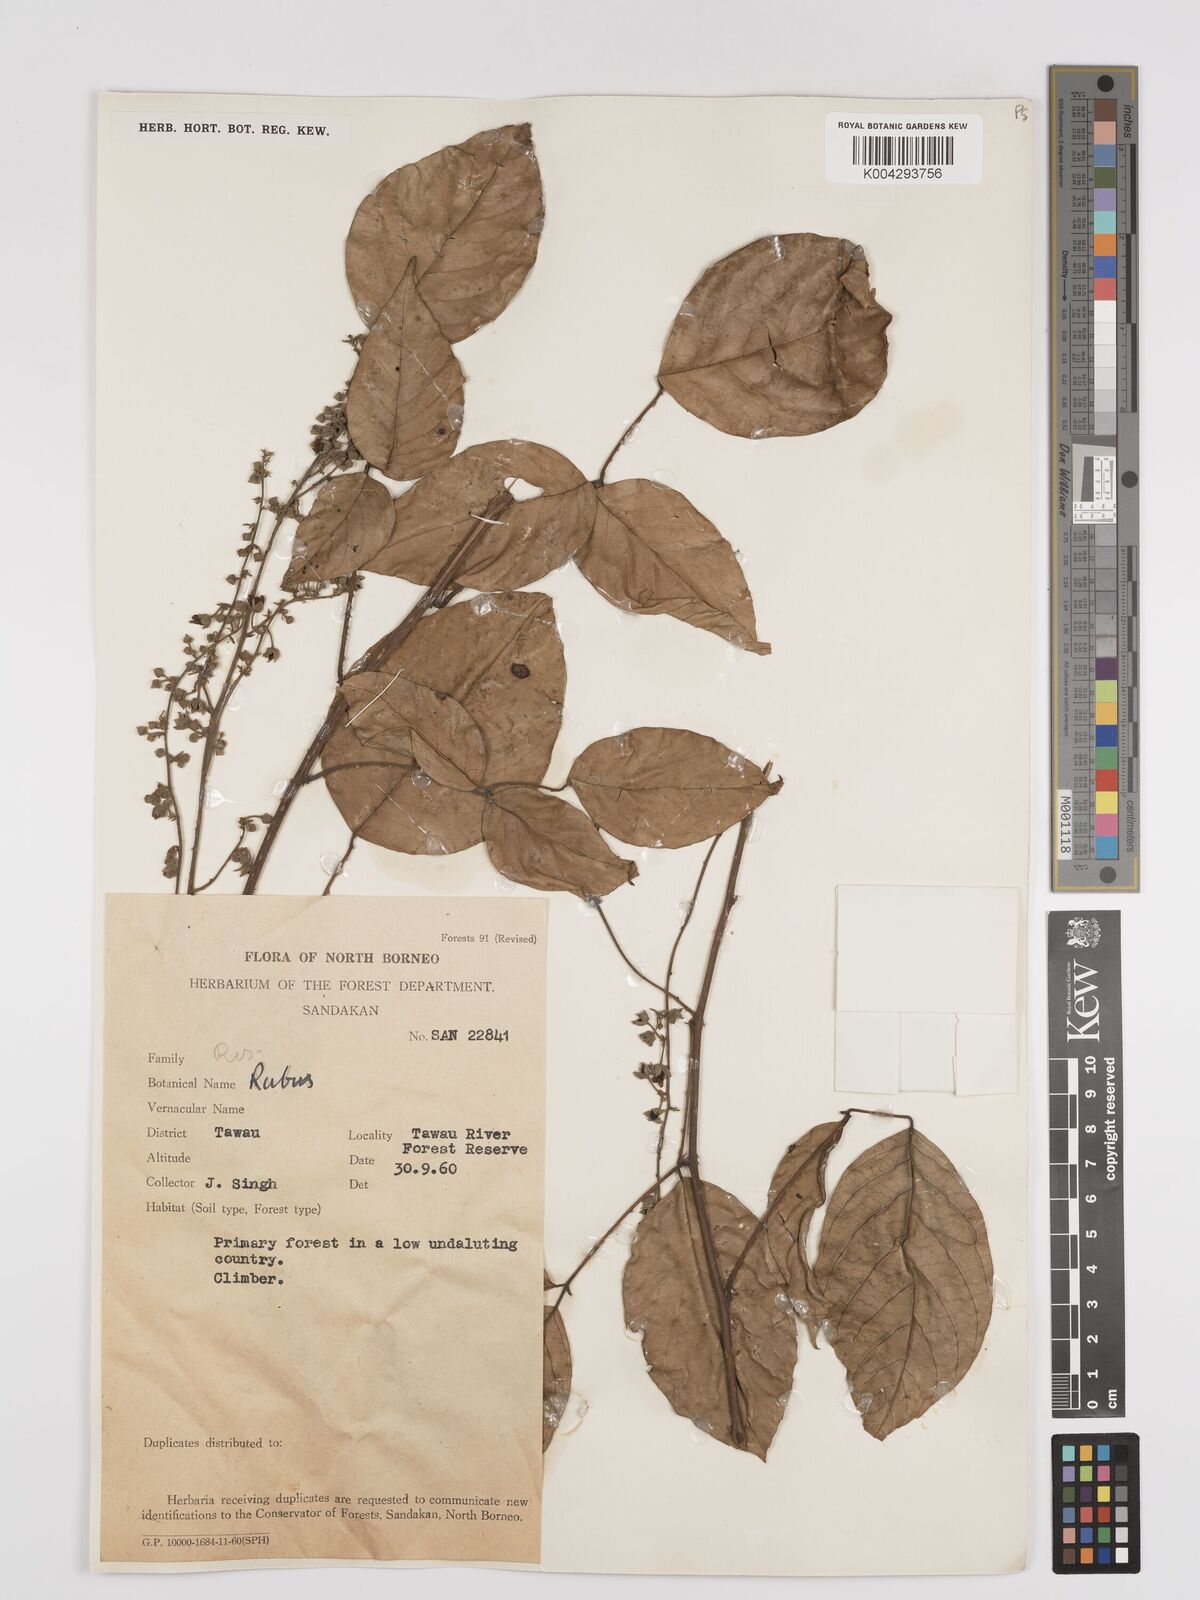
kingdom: Plantae
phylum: Tracheophyta
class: Magnoliopsida
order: Rosales
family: Rosaceae
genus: Rubus
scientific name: Rubus clementis
